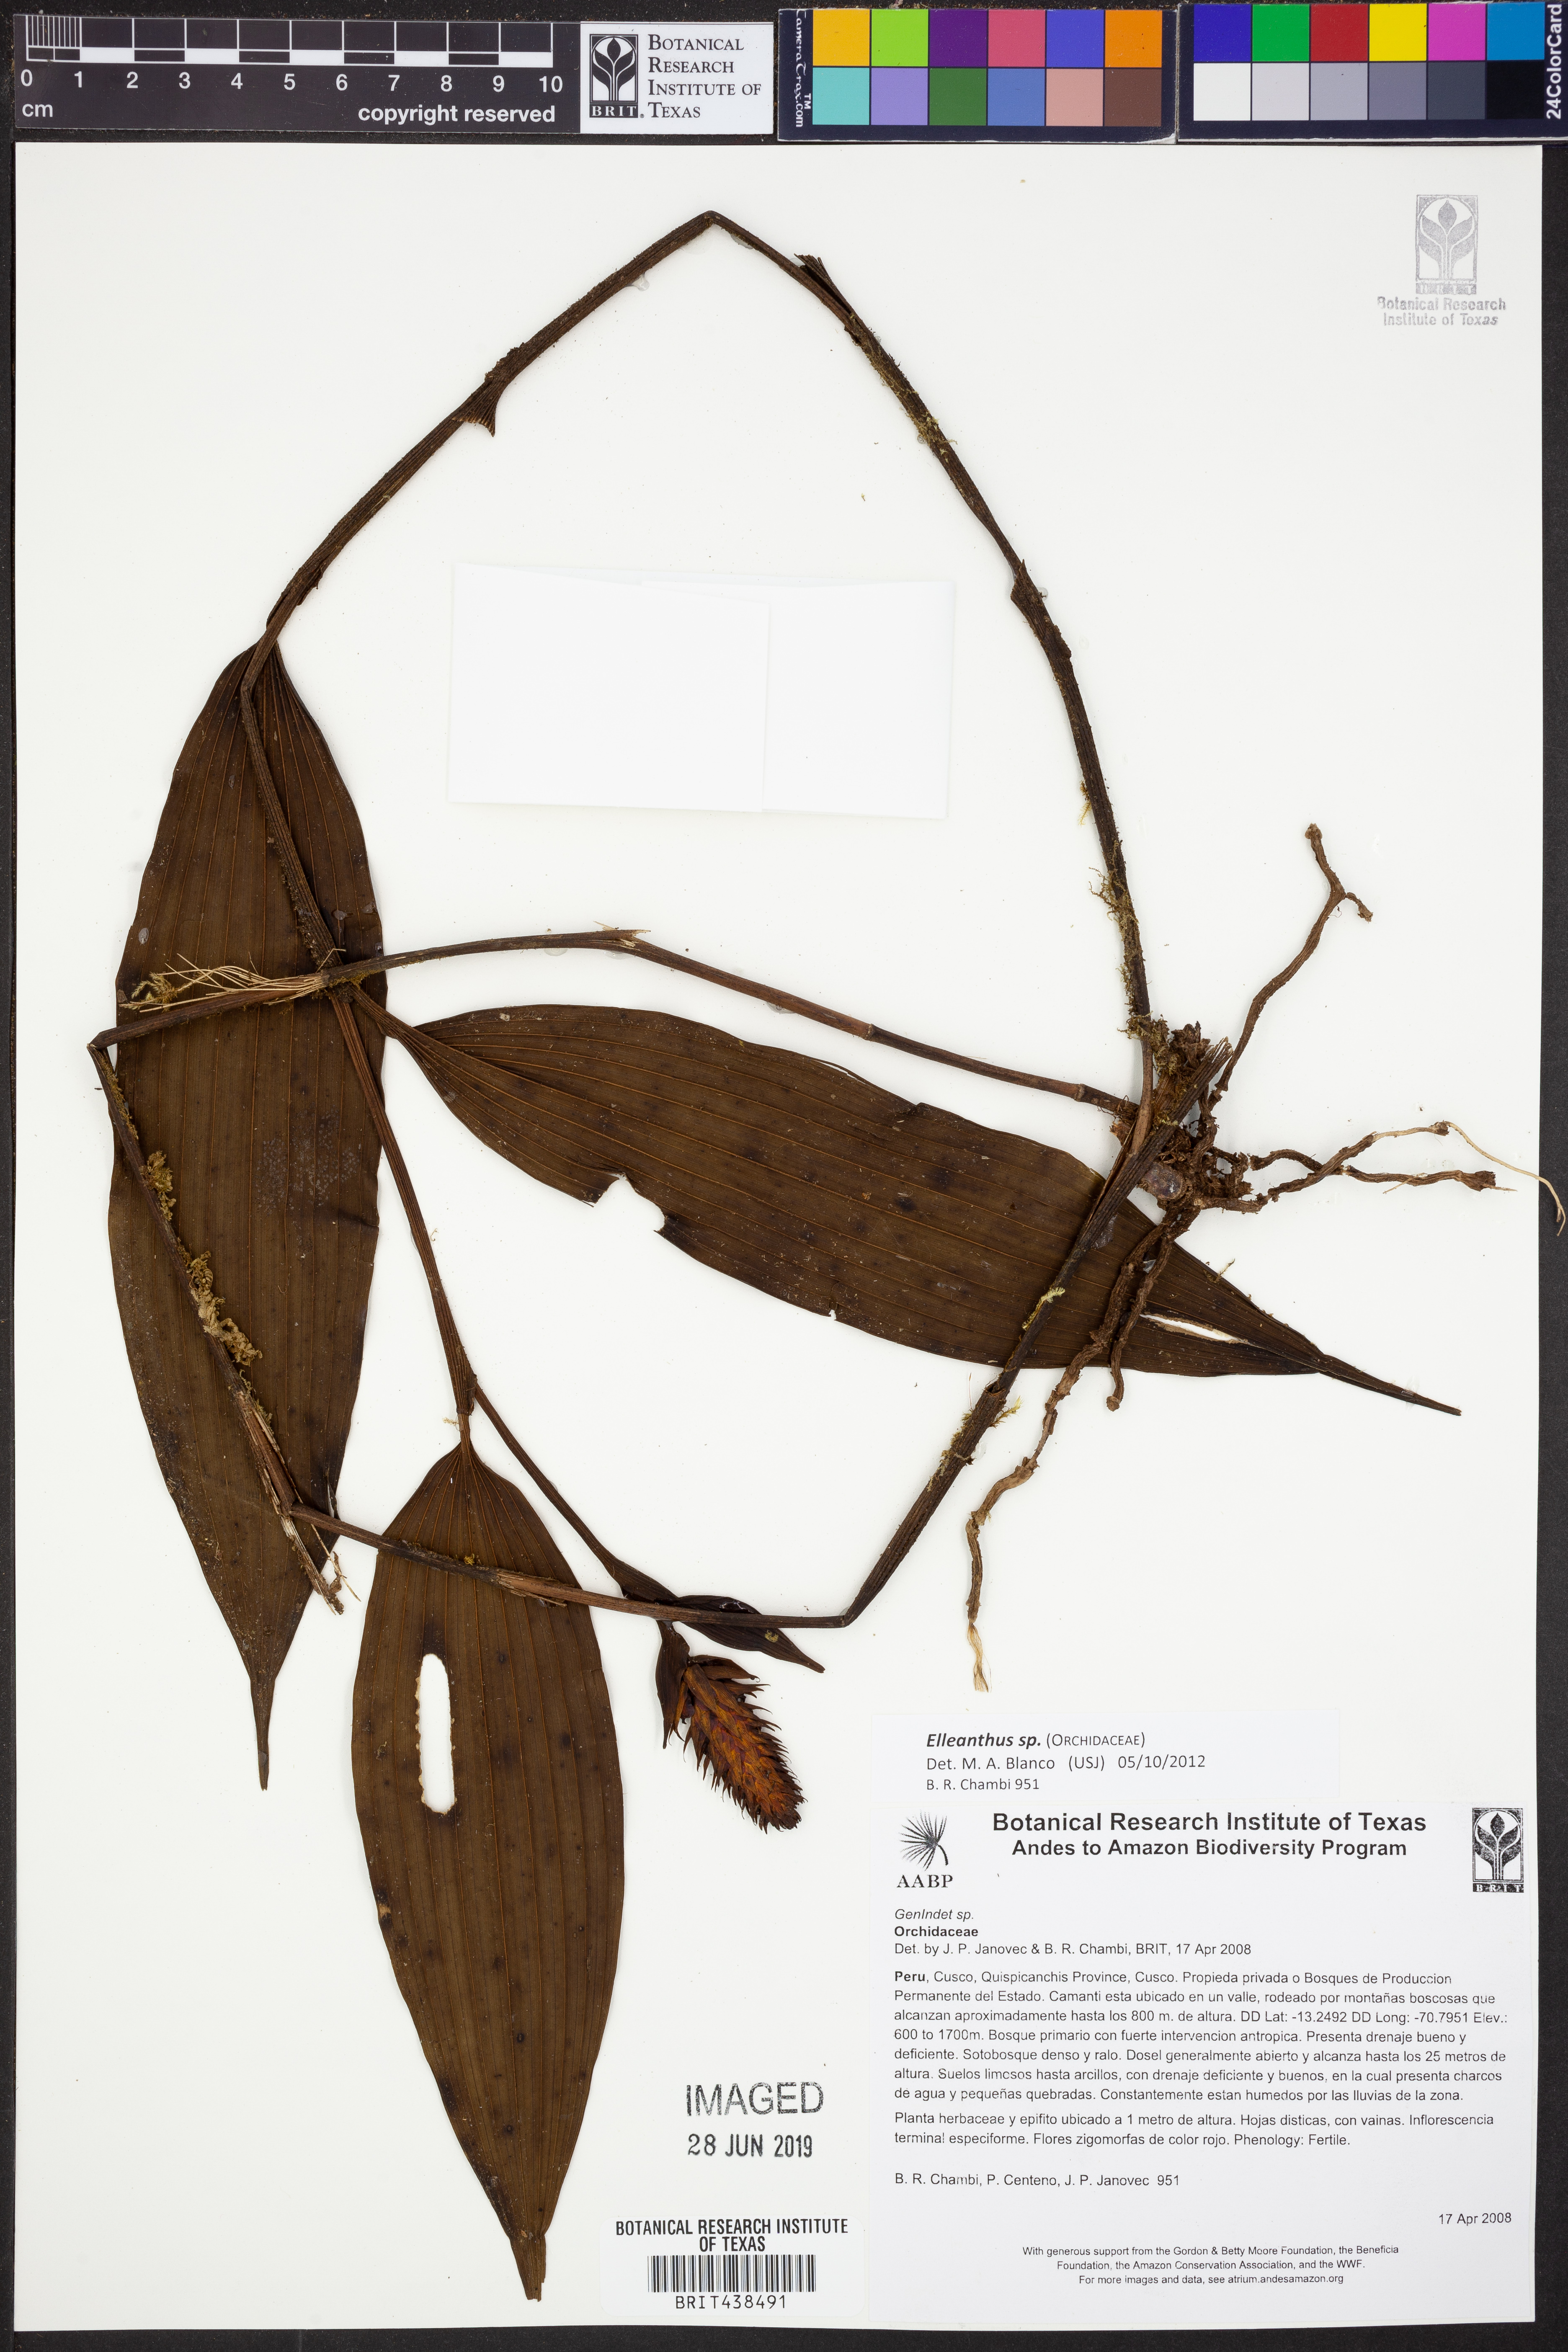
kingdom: Plantae
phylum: Tracheophyta
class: Liliopsida
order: Asparagales
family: Orchidaceae
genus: Elleanthus
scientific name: Elleanthus
